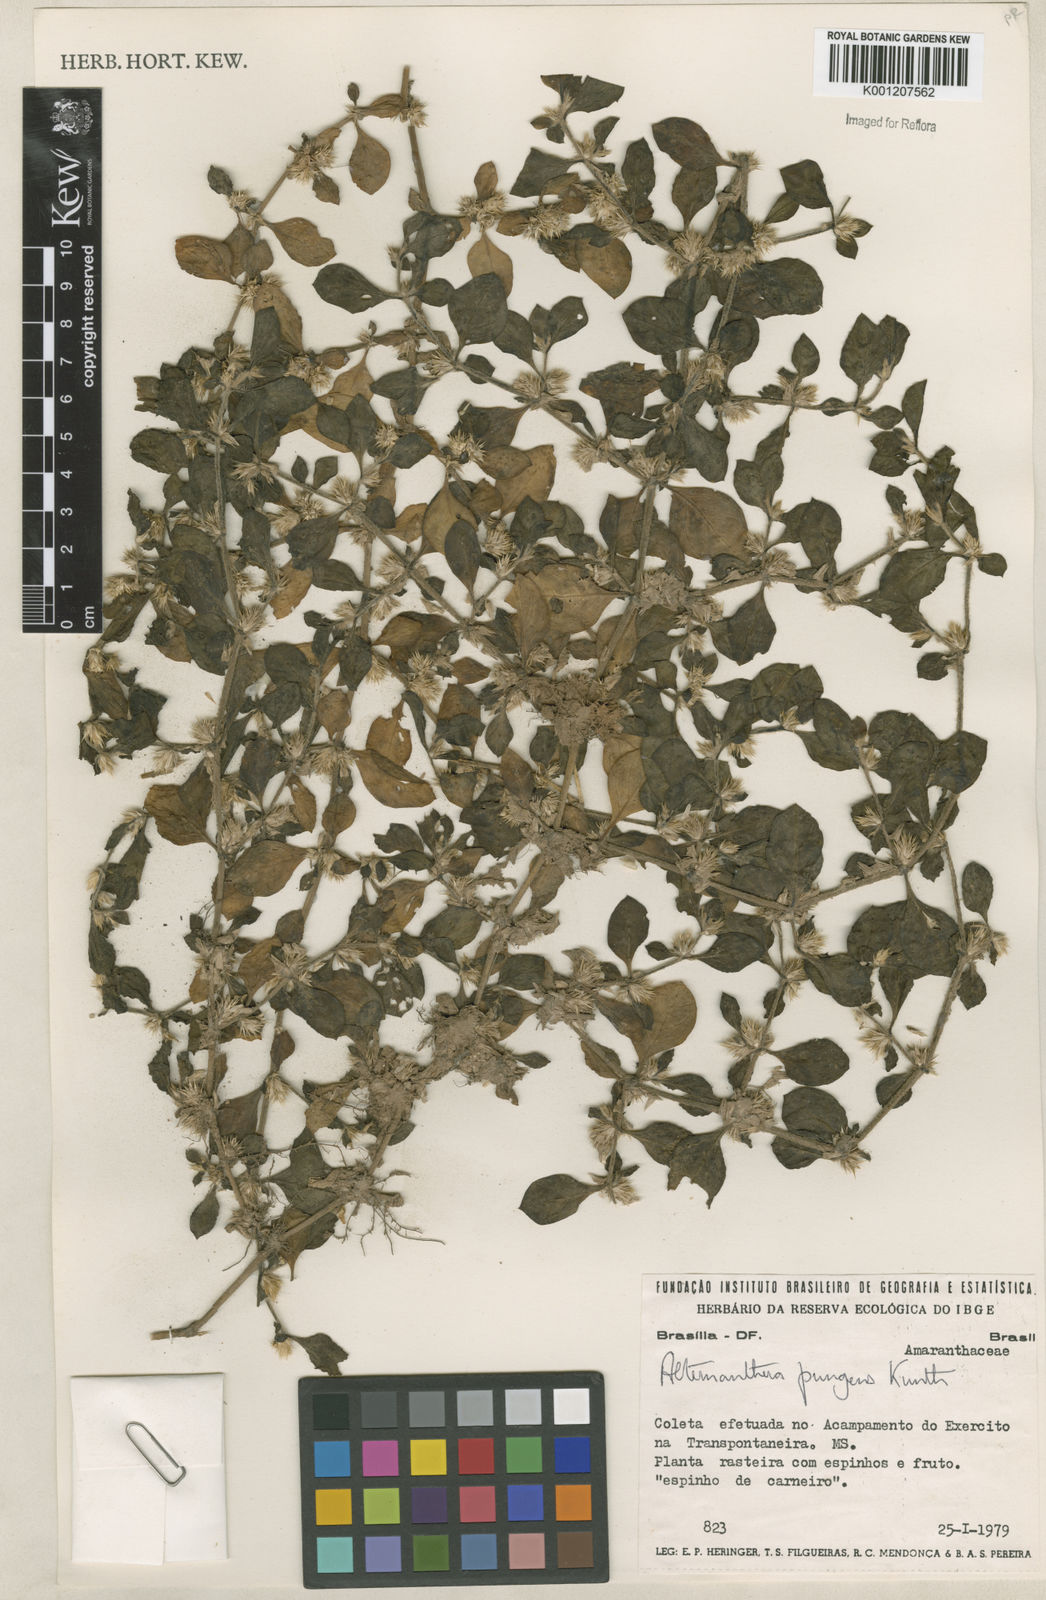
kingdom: Plantae
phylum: Tracheophyta
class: Magnoliopsida
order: Caryophyllales
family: Amaranthaceae
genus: Alternanthera
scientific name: Alternanthera pungens
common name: Khakiweed
